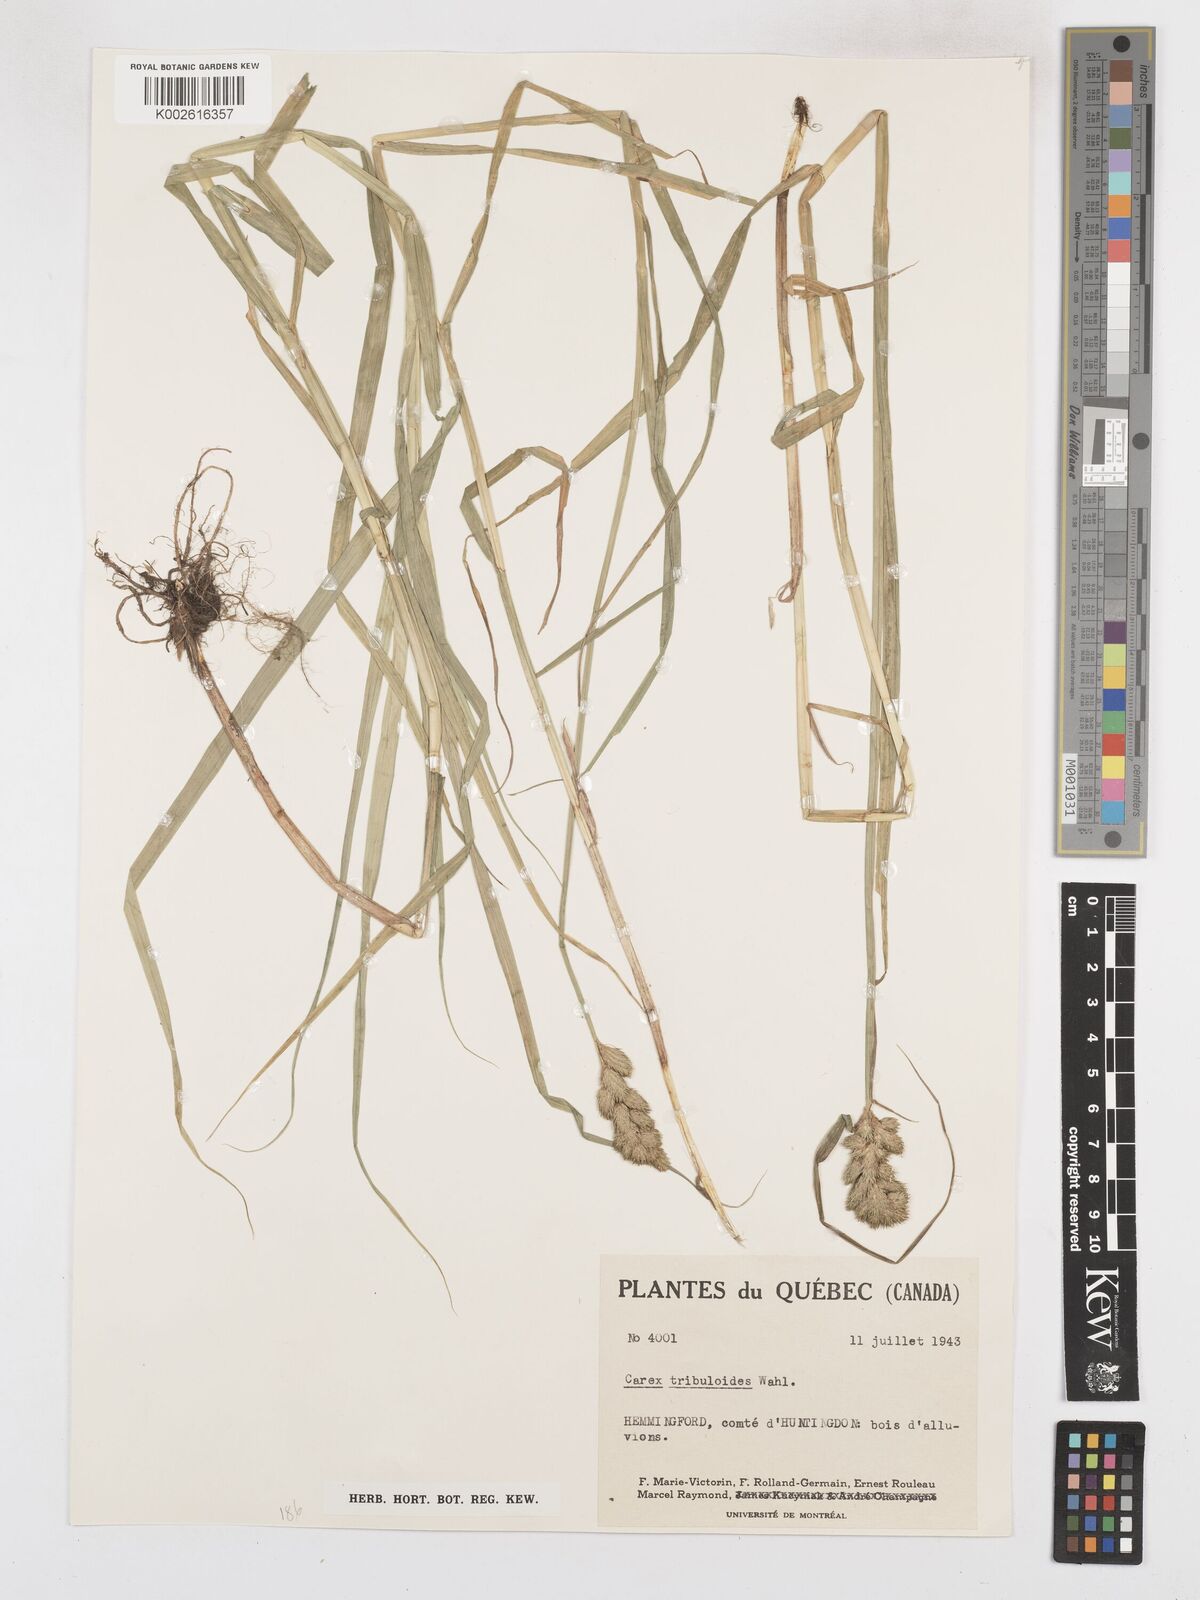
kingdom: Plantae
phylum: Tracheophyta
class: Liliopsida
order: Poales
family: Cyperaceae
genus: Carex
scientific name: Carex tribuloides
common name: Blunt broom sedge
